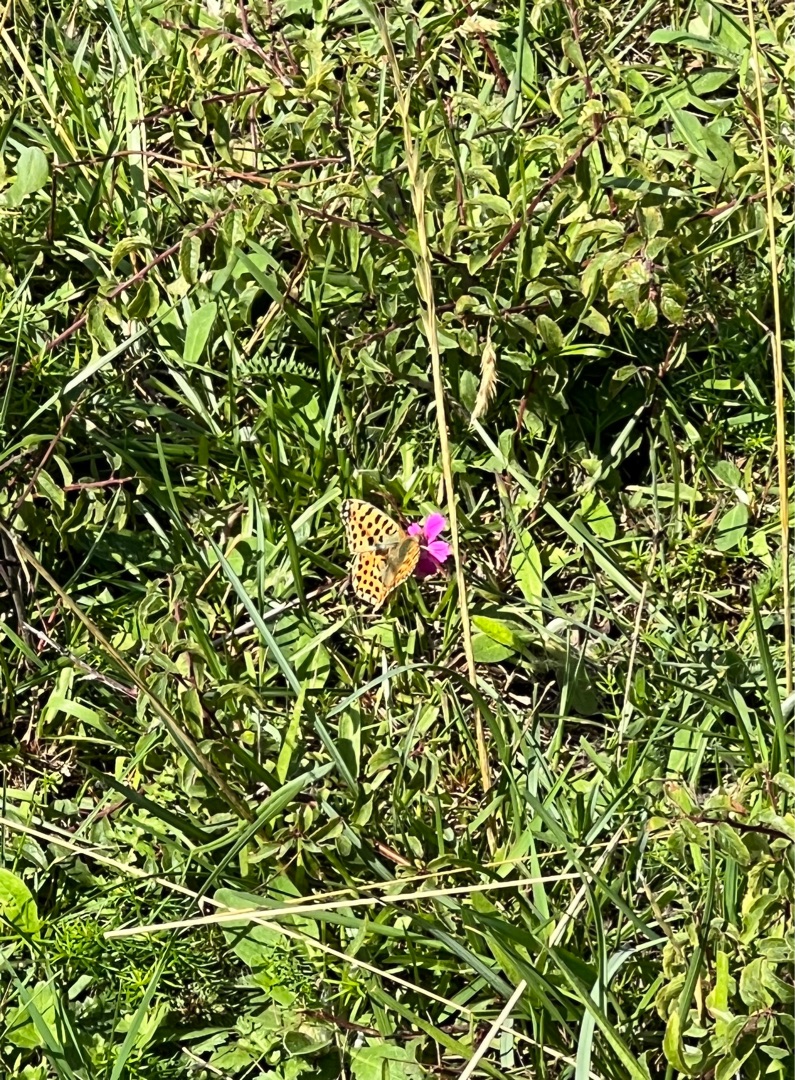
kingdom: Animalia
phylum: Arthropoda
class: Insecta
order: Lepidoptera
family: Nymphalidae
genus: Issoria
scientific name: Issoria lathonia
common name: Storplettet perlemorsommerfugl
